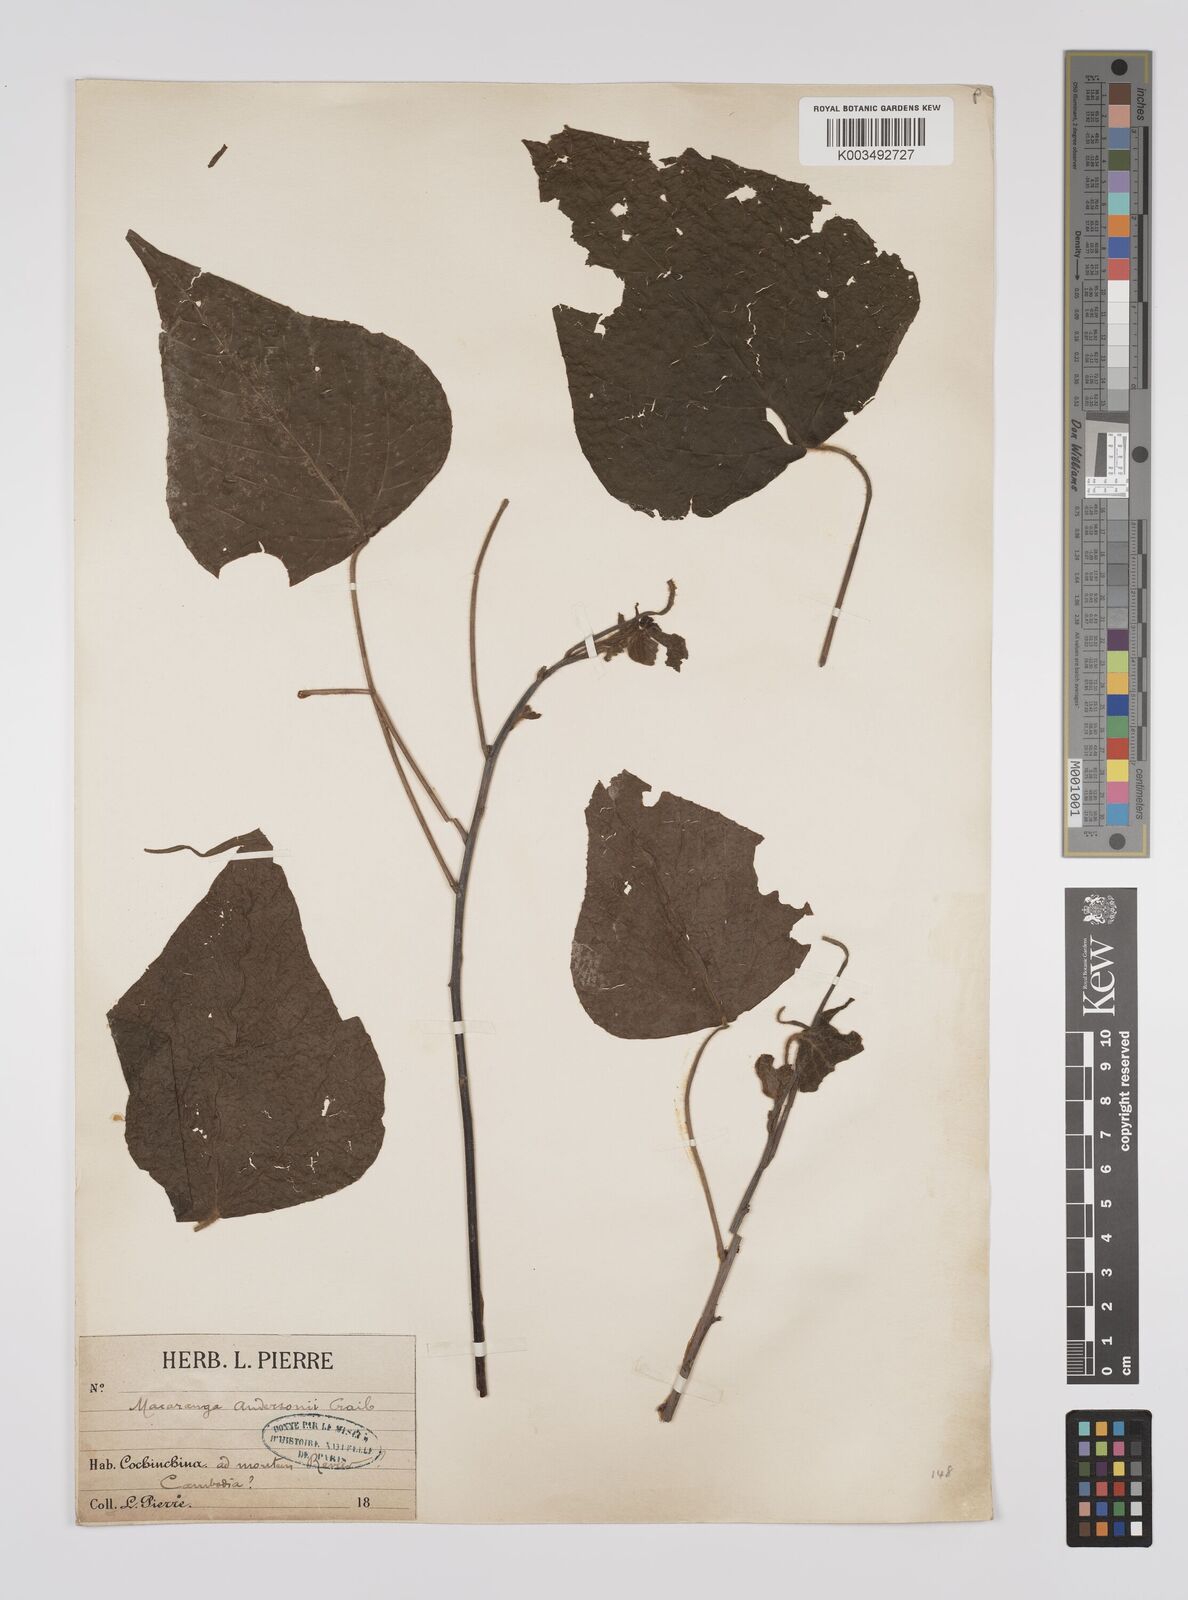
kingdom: Plantae
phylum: Tracheophyta
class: Magnoliopsida
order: Malpighiales
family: Euphorbiaceae
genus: Macaranga
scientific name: Macaranga kurzii
